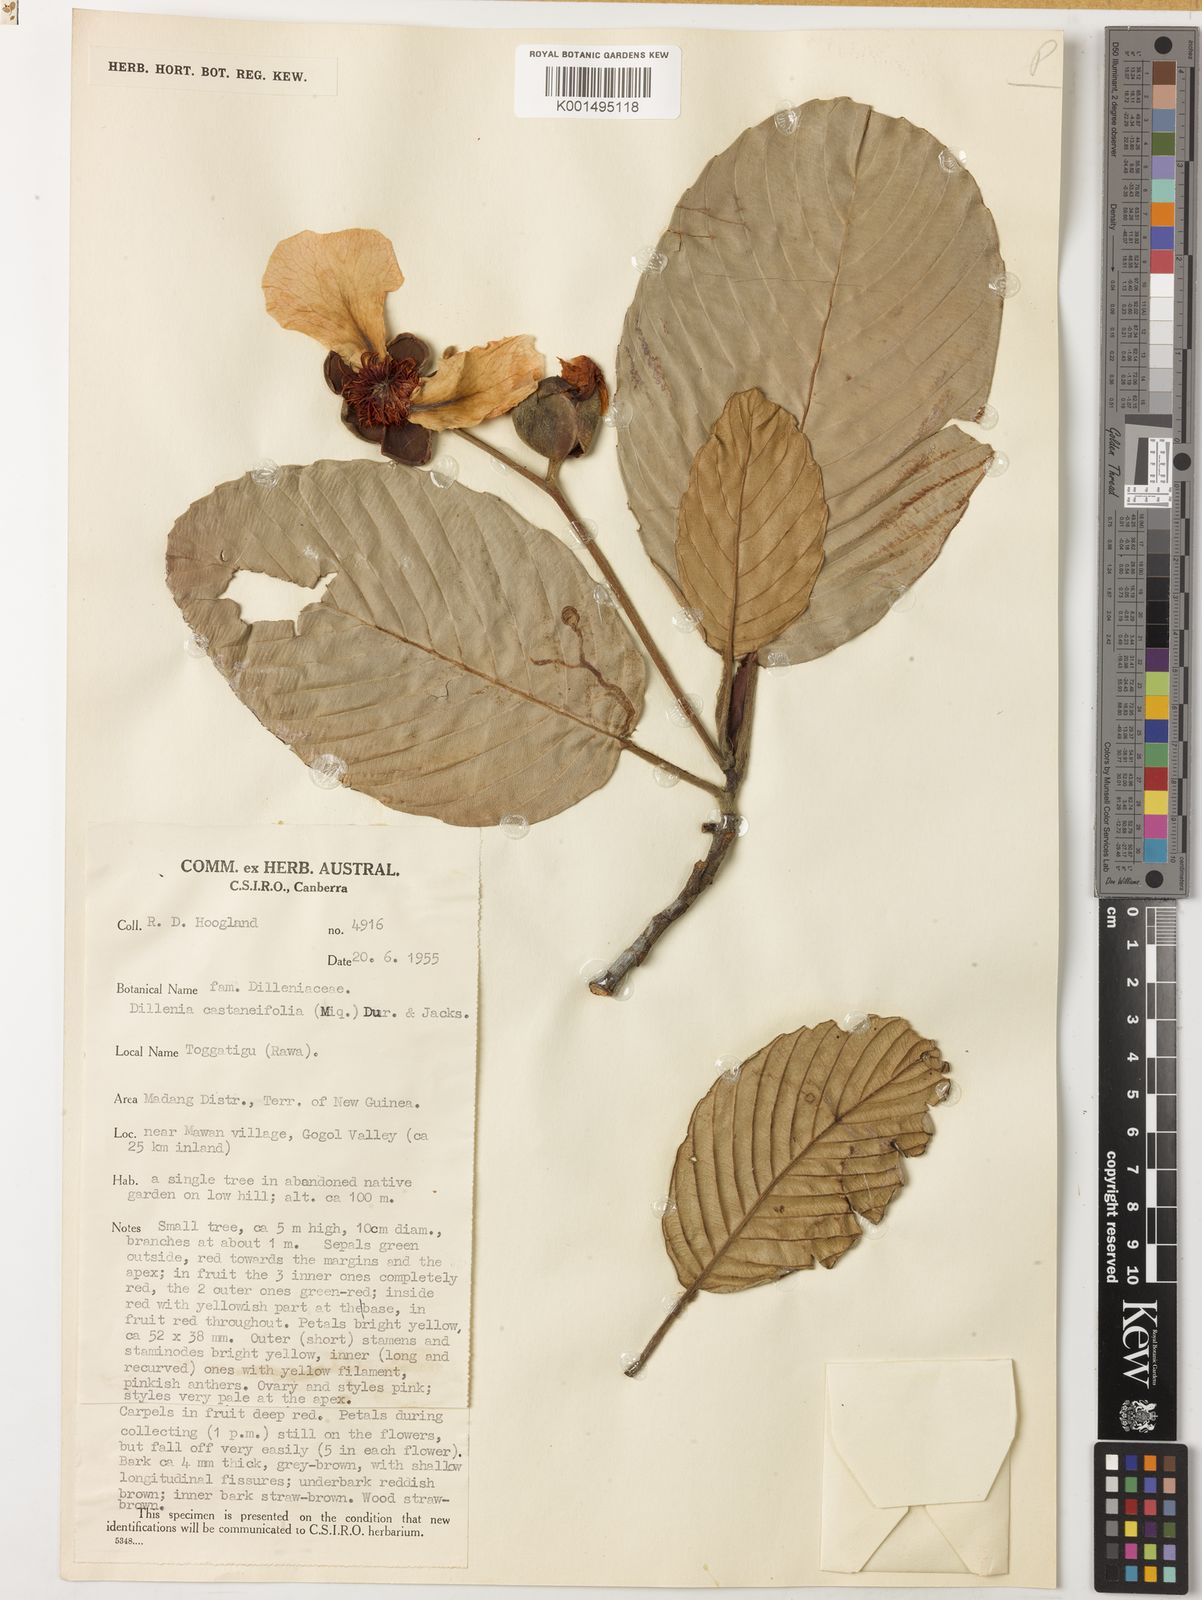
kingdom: Plantae
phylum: Tracheophyta
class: Magnoliopsida
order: Dilleniales
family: Dilleniaceae
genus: Dillenia
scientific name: Dillenia castaneifolia
